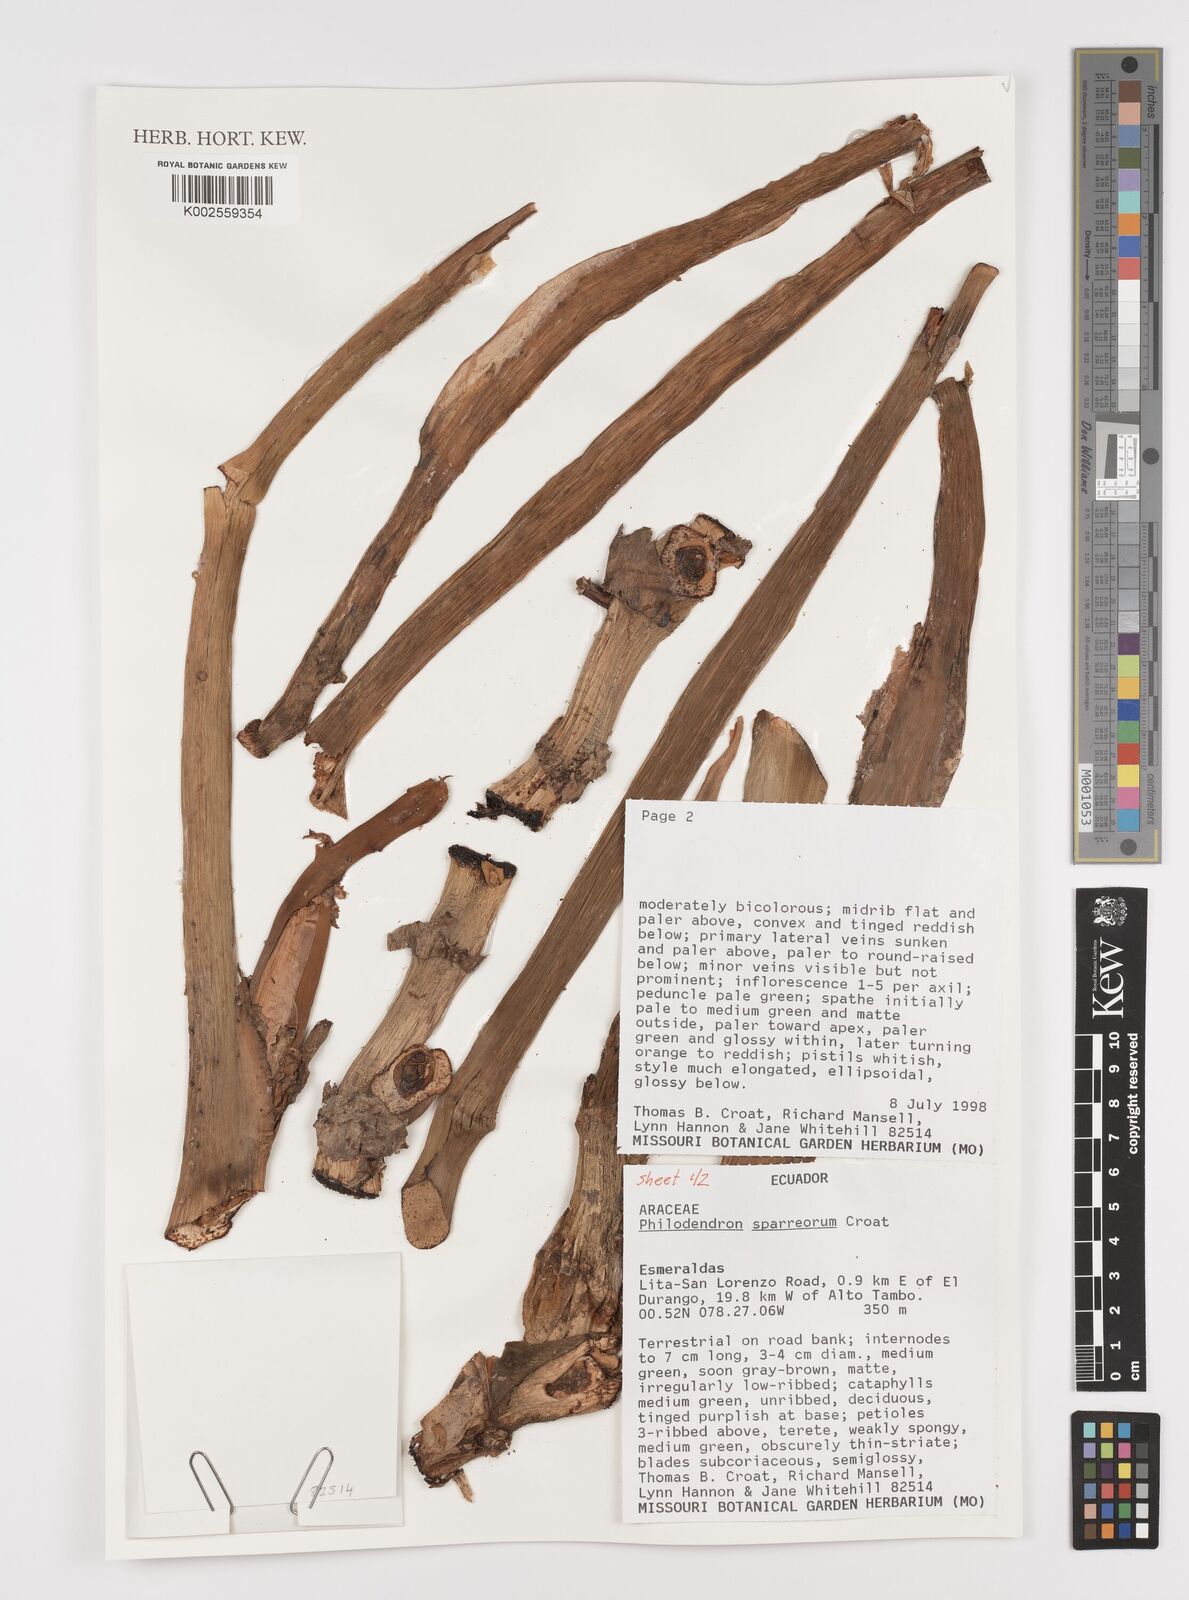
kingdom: Plantae
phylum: Tracheophyta
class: Liliopsida
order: Alismatales
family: Araceae
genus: Philodendron
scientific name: Philodendron sparreorum
